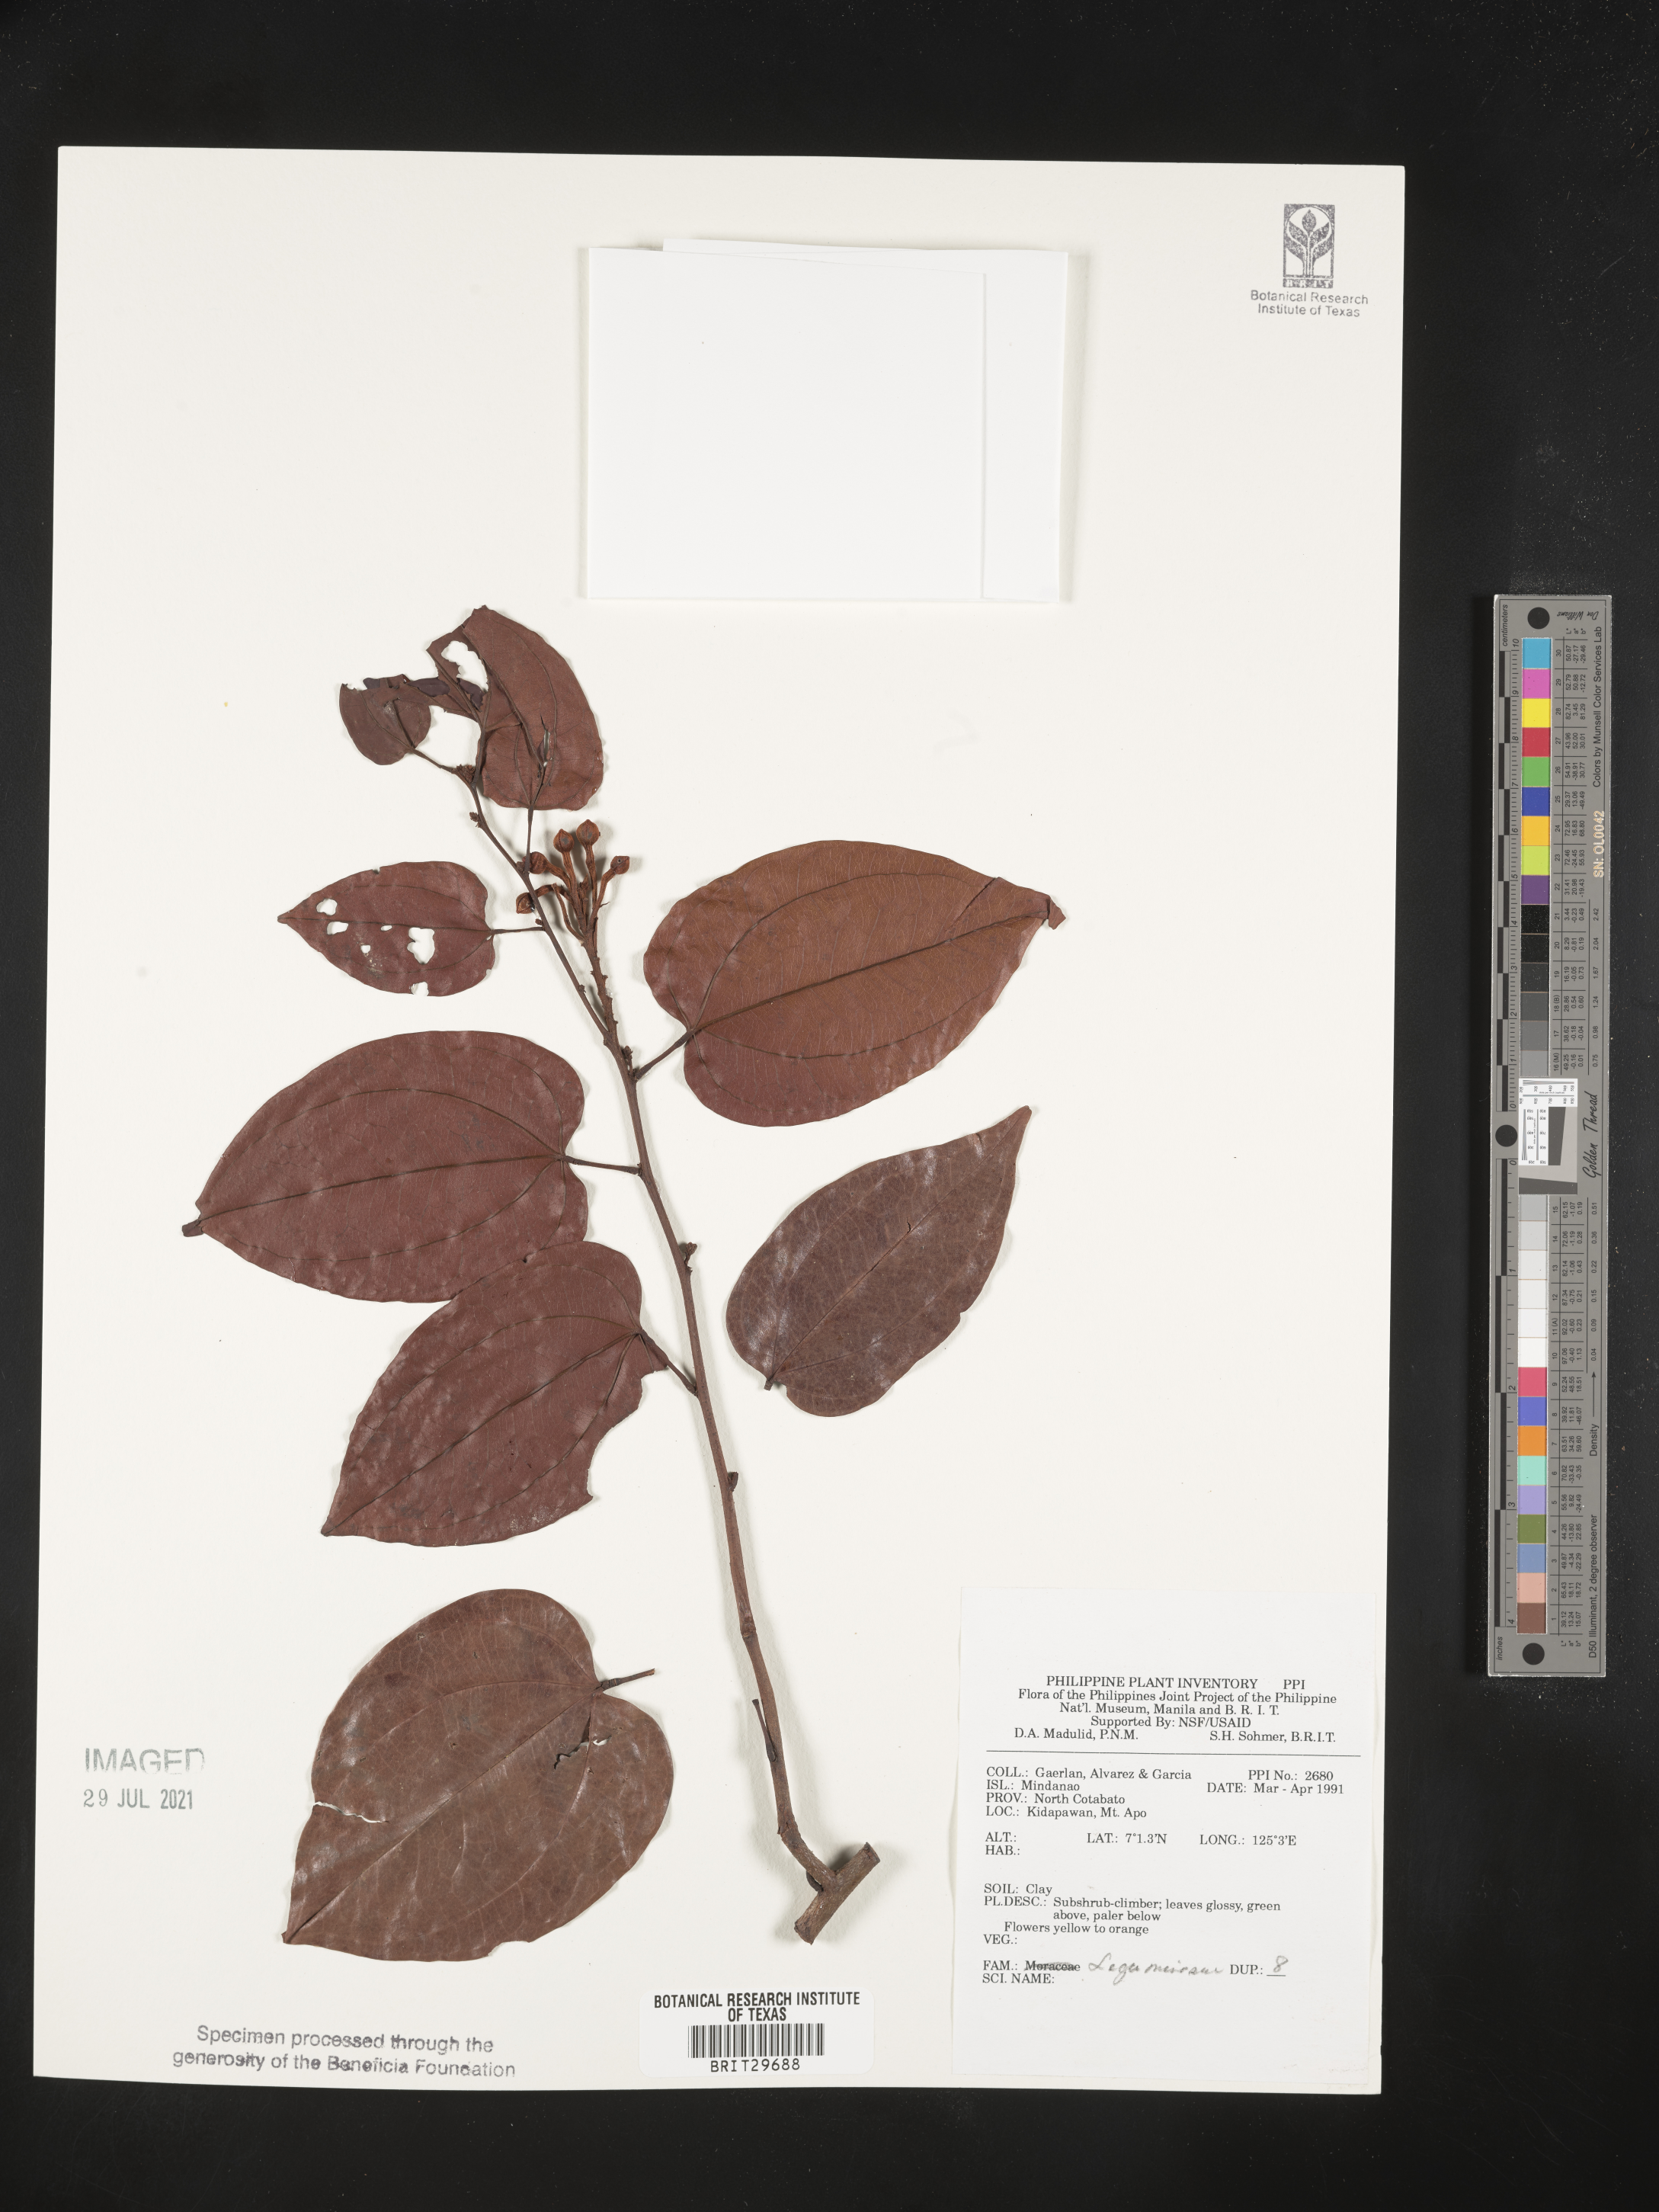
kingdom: Plantae
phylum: Tracheophyta
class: Magnoliopsida
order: Fabales
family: Fabaceae
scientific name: Fabaceae
